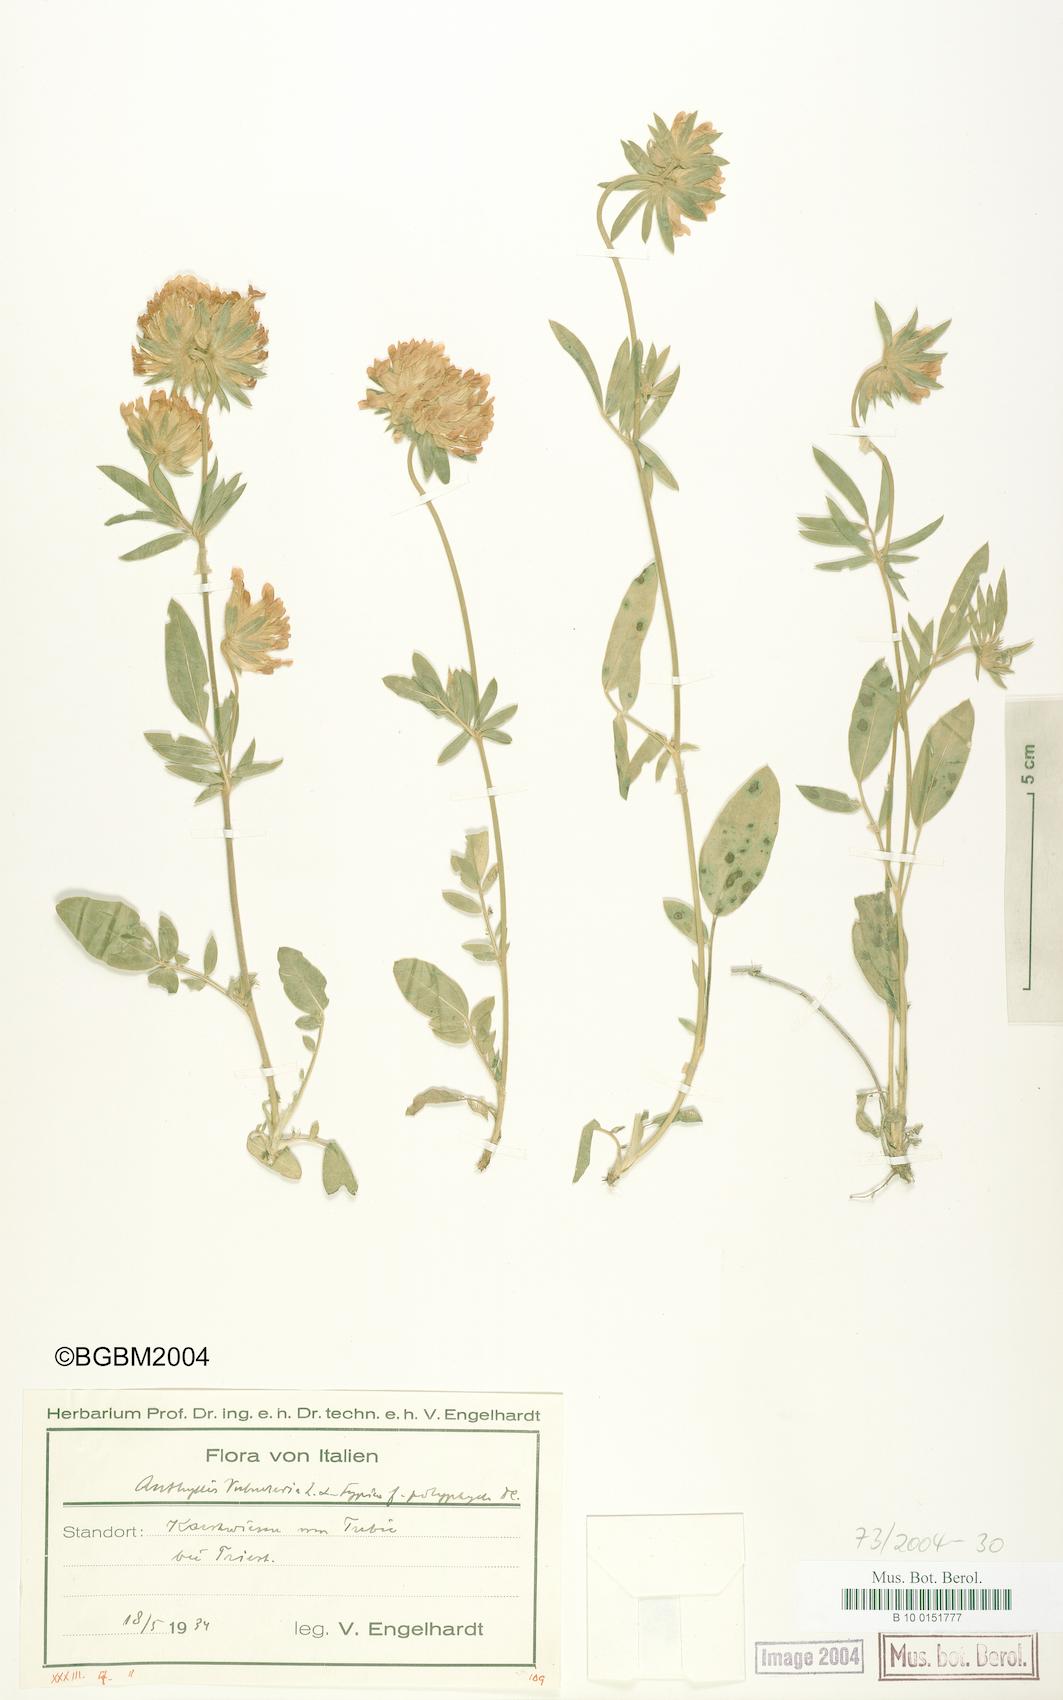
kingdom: Plantae
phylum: Tracheophyta
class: Magnoliopsida
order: Fabales
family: Fabaceae
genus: Anthyllis
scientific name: Anthyllis vulneraria
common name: Kidney vetch
